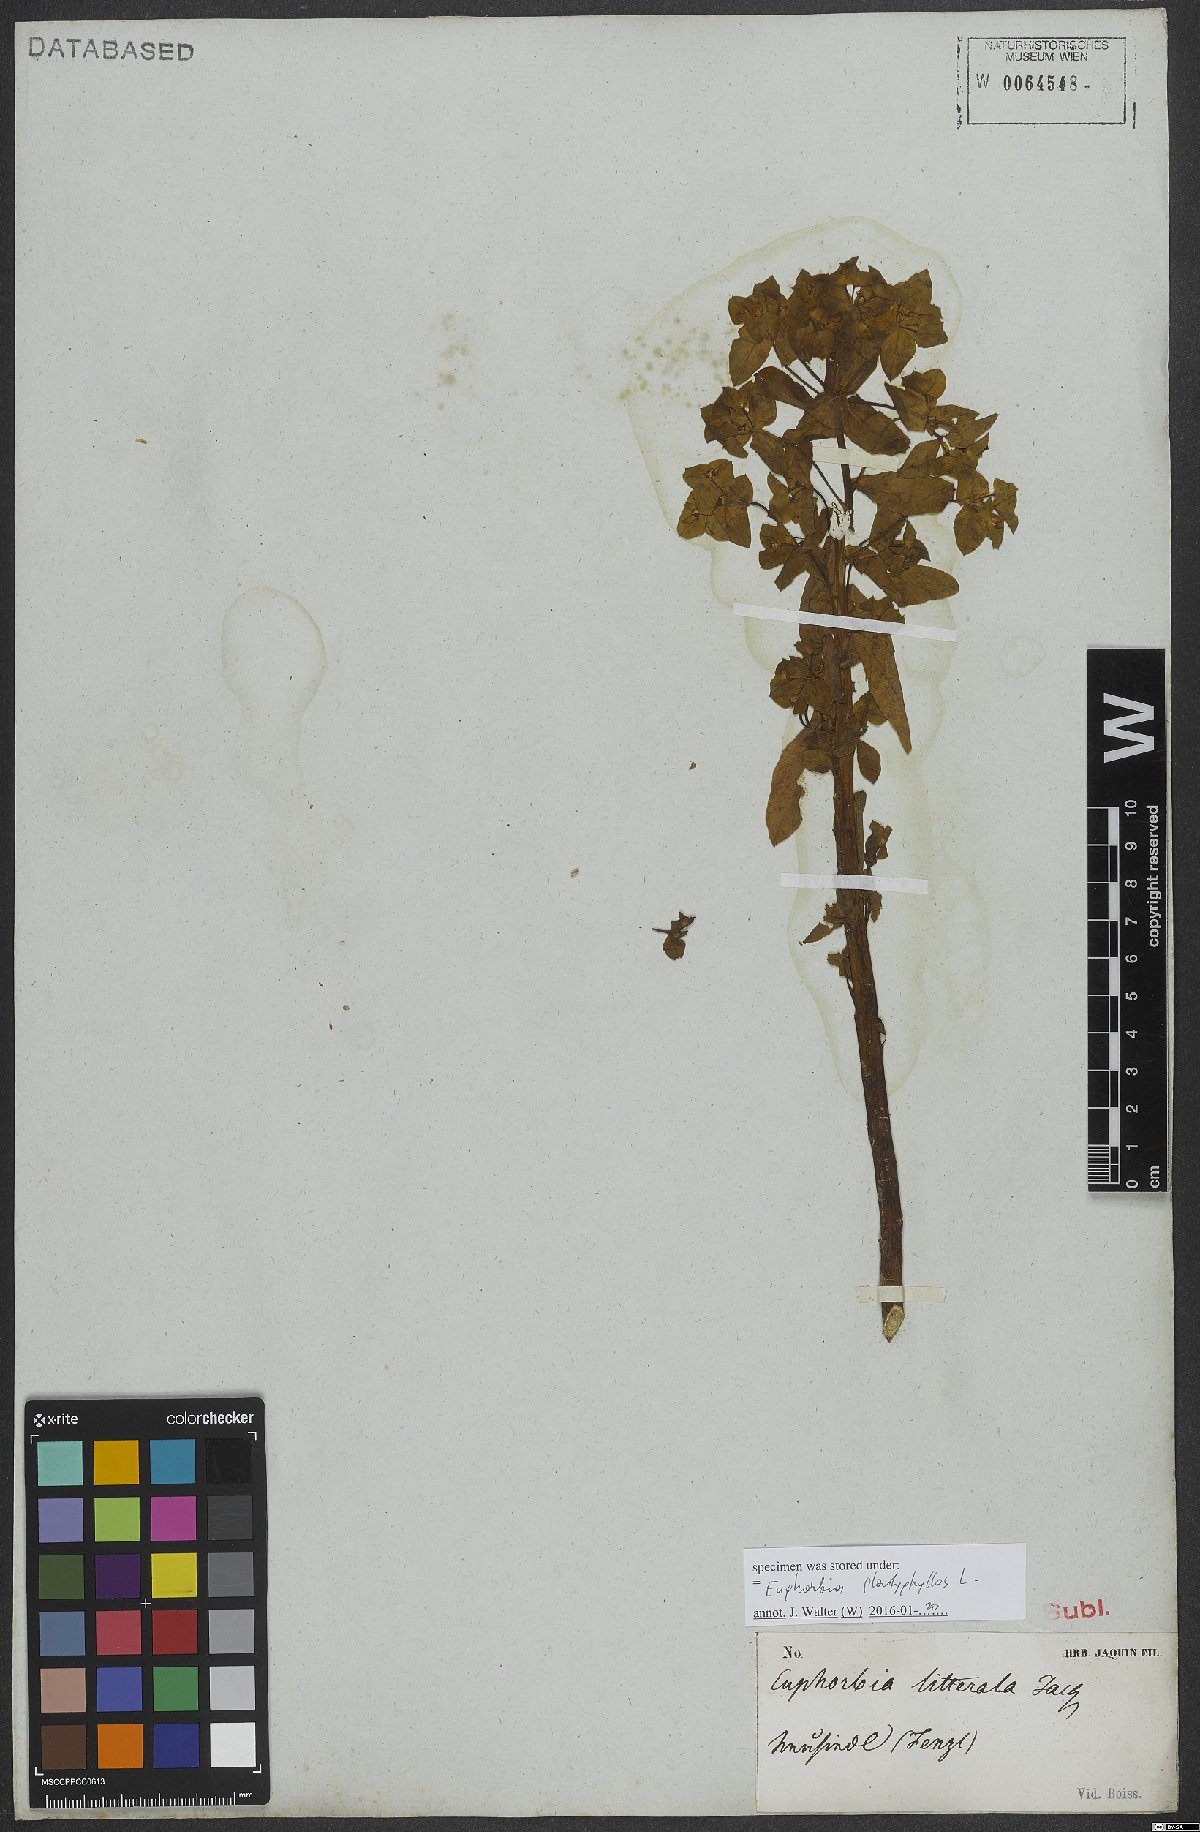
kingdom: Plantae
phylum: Tracheophyta
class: Magnoliopsida
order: Malpighiales
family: Euphorbiaceae
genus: Euphorbia
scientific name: Euphorbia platyphyllos
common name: Broad-leaved spurge
